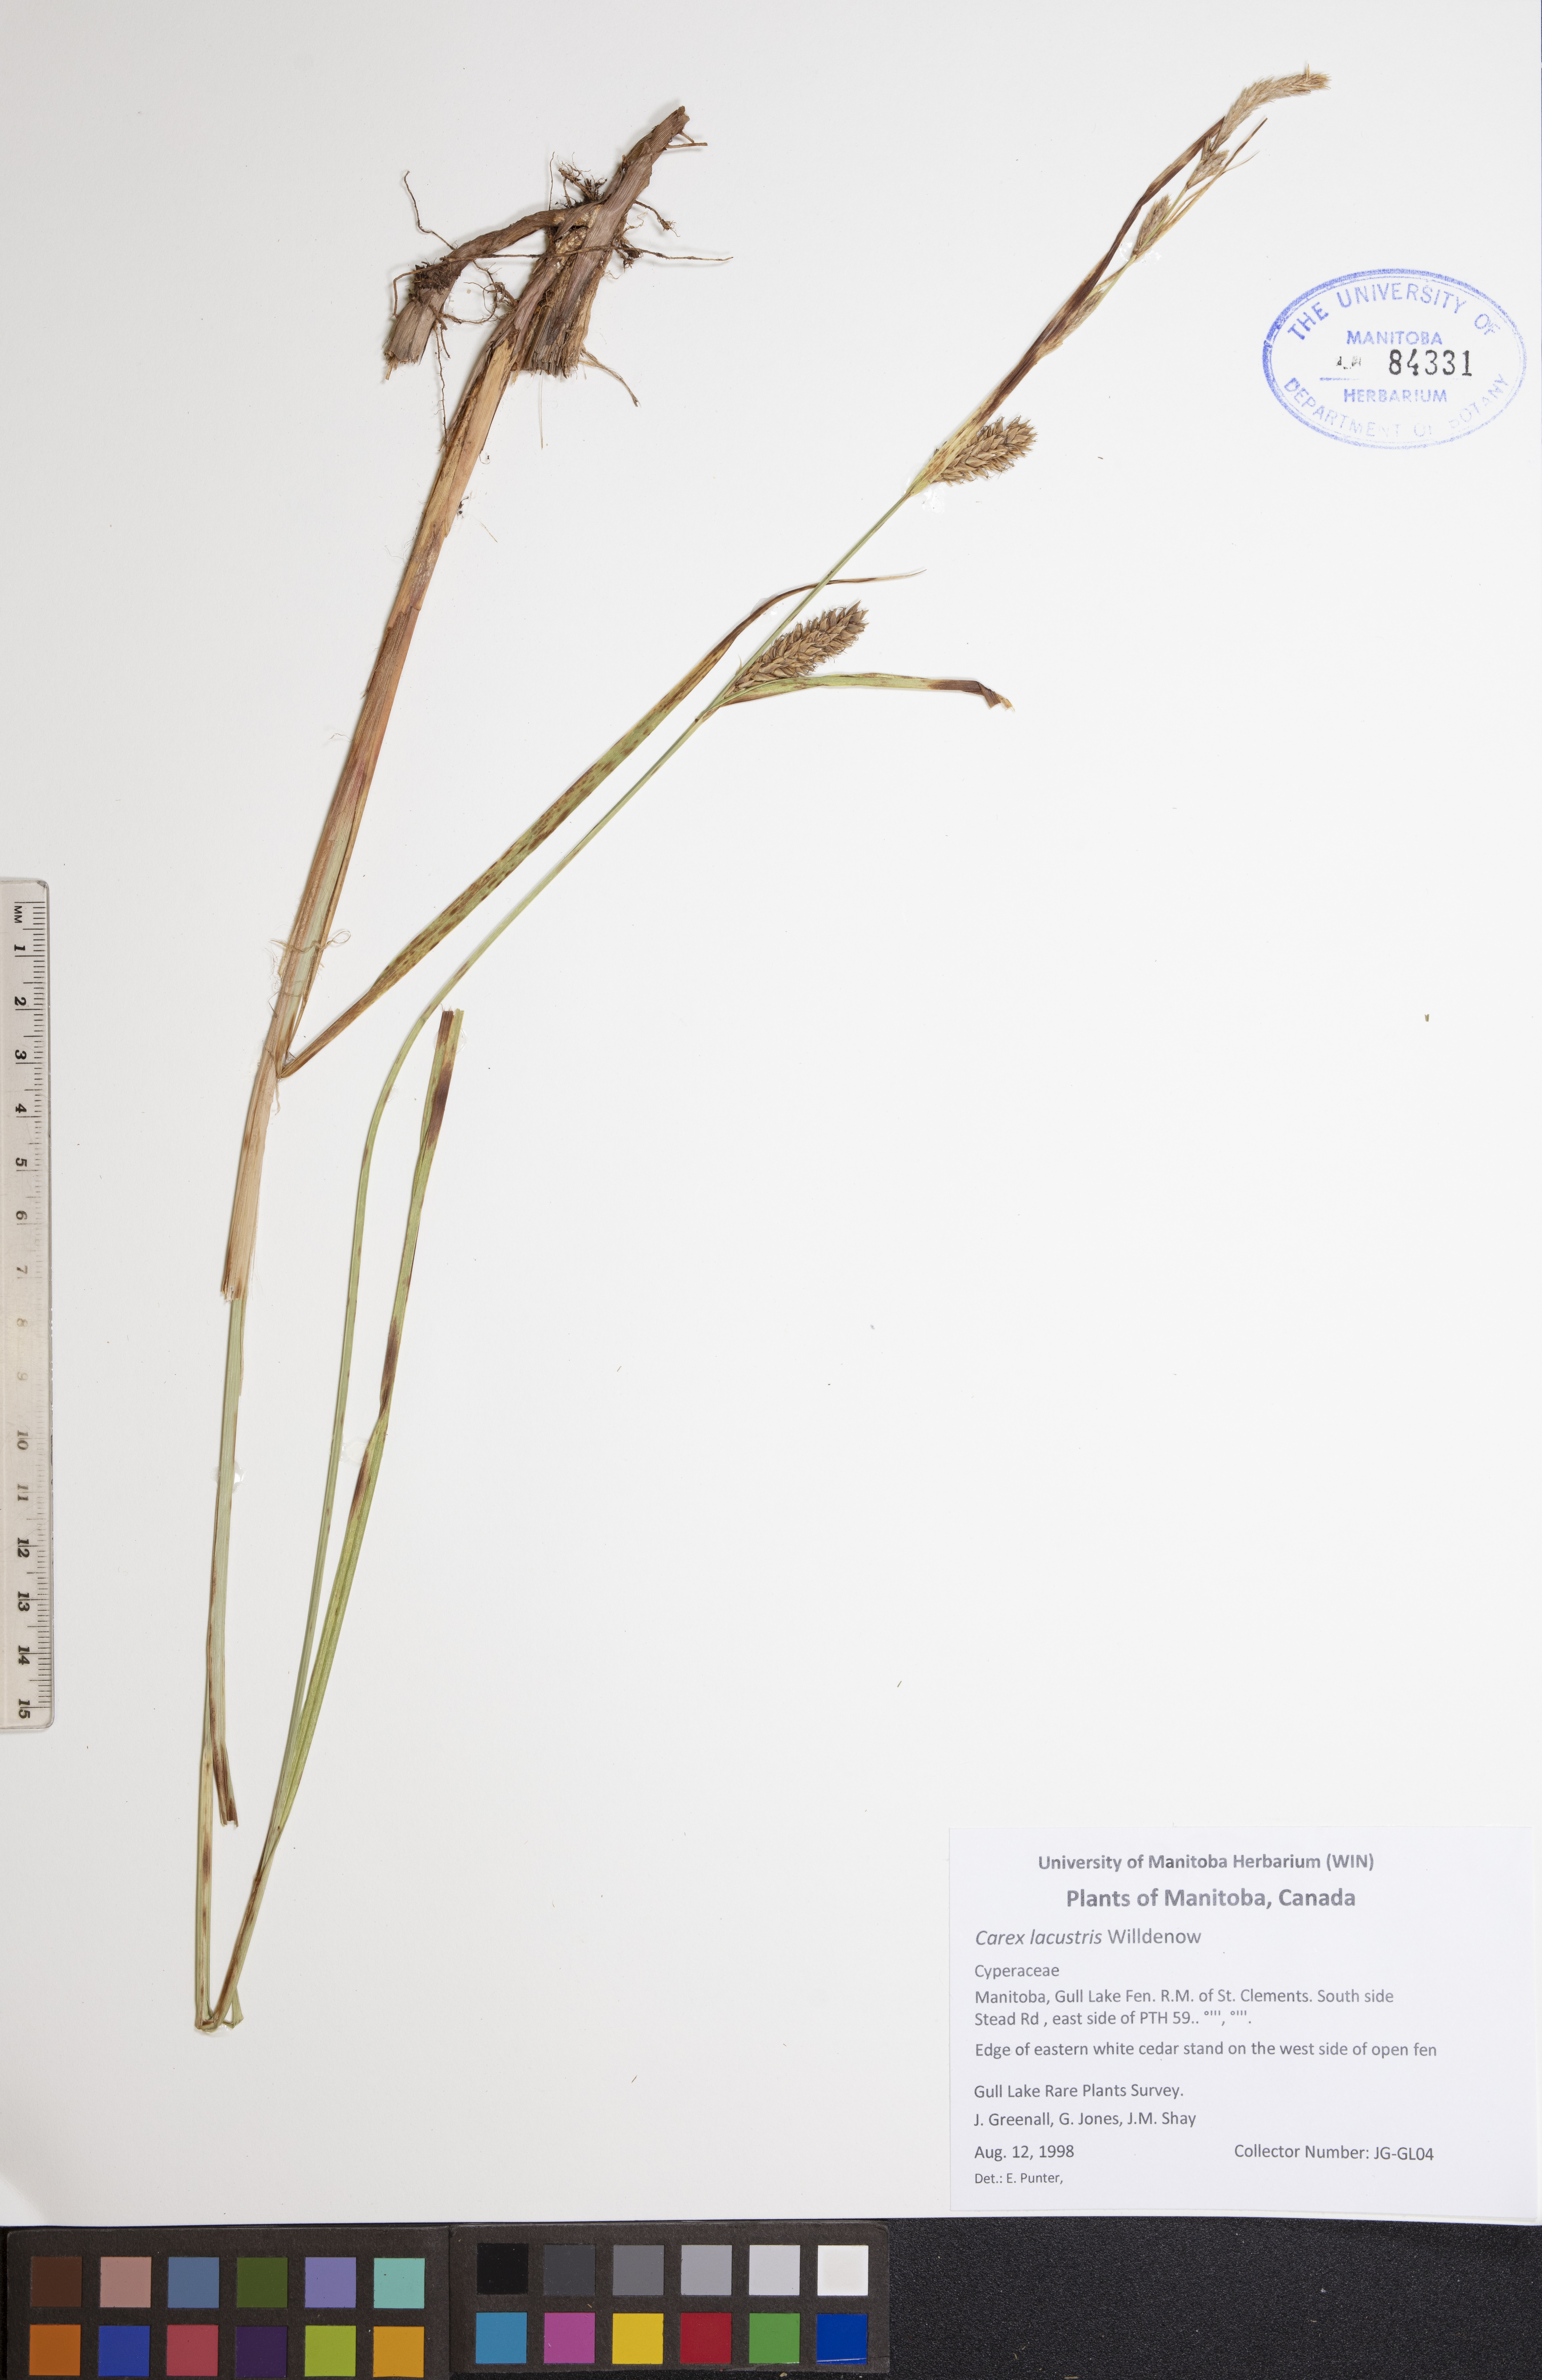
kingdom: Plantae
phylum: Tracheophyta
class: Liliopsida
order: Poales
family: Cyperaceae
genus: Carex
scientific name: Carex lacustris
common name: Common lake sedge
